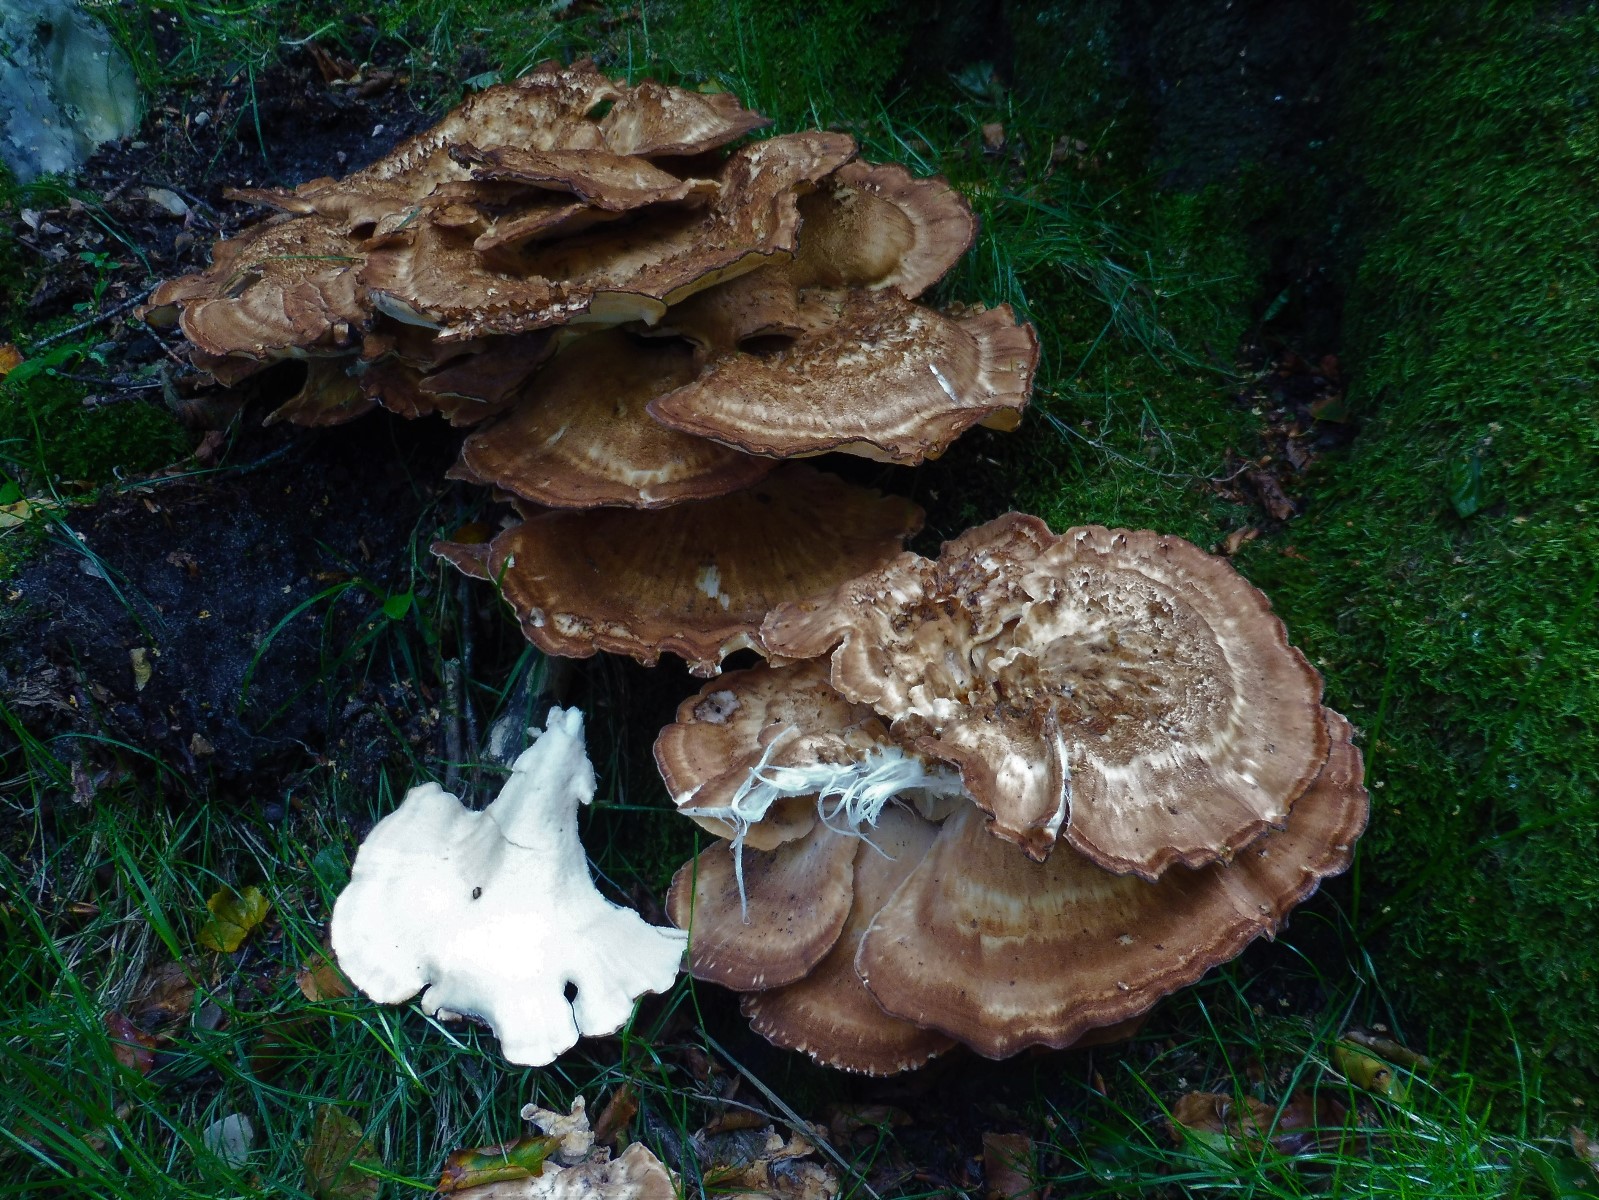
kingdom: Fungi
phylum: Basidiomycota
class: Agaricomycetes
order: Polyporales
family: Meripilaceae
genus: Meripilus
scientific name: Meripilus giganteus
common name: kæmpeporesvamp
